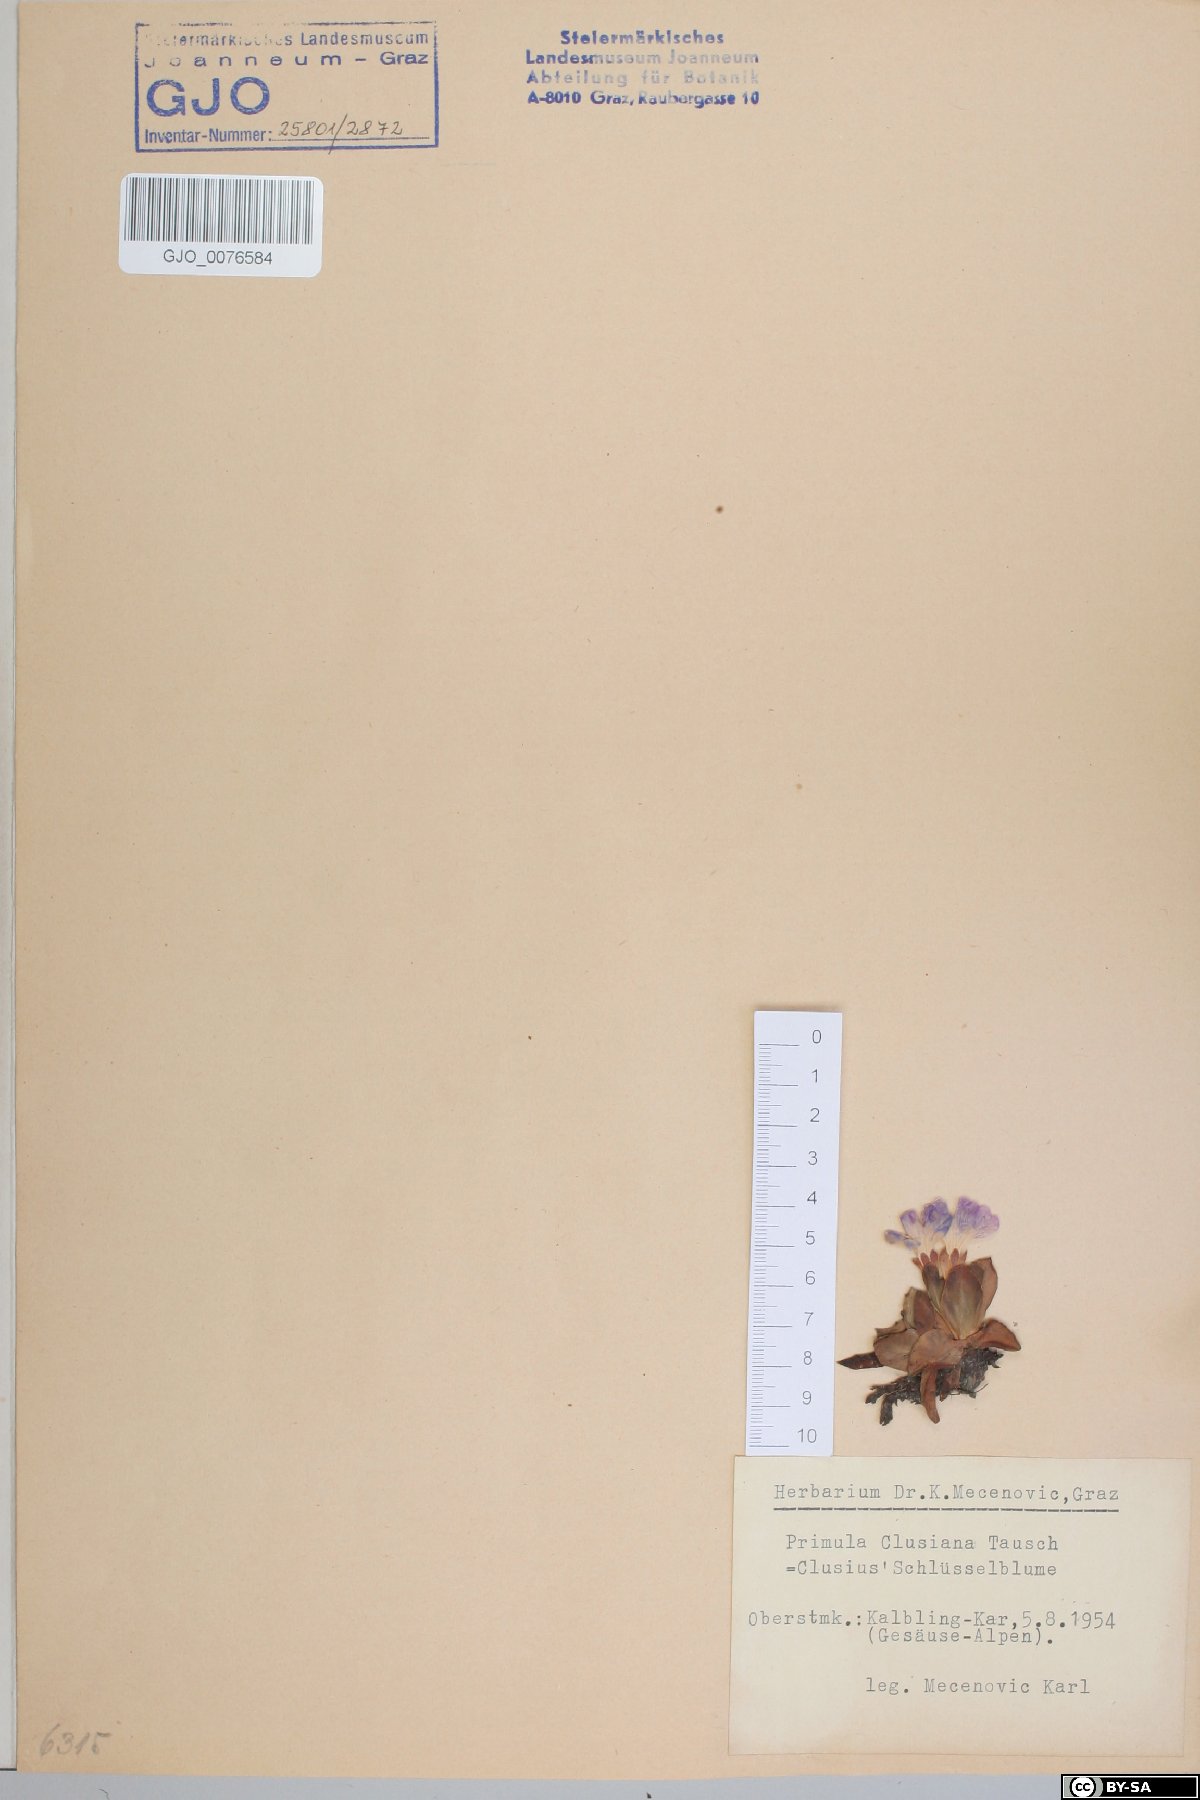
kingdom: Plantae
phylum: Tracheophyta
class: Magnoliopsida
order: Ericales
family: Primulaceae
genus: Primula
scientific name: Primula clusiana
